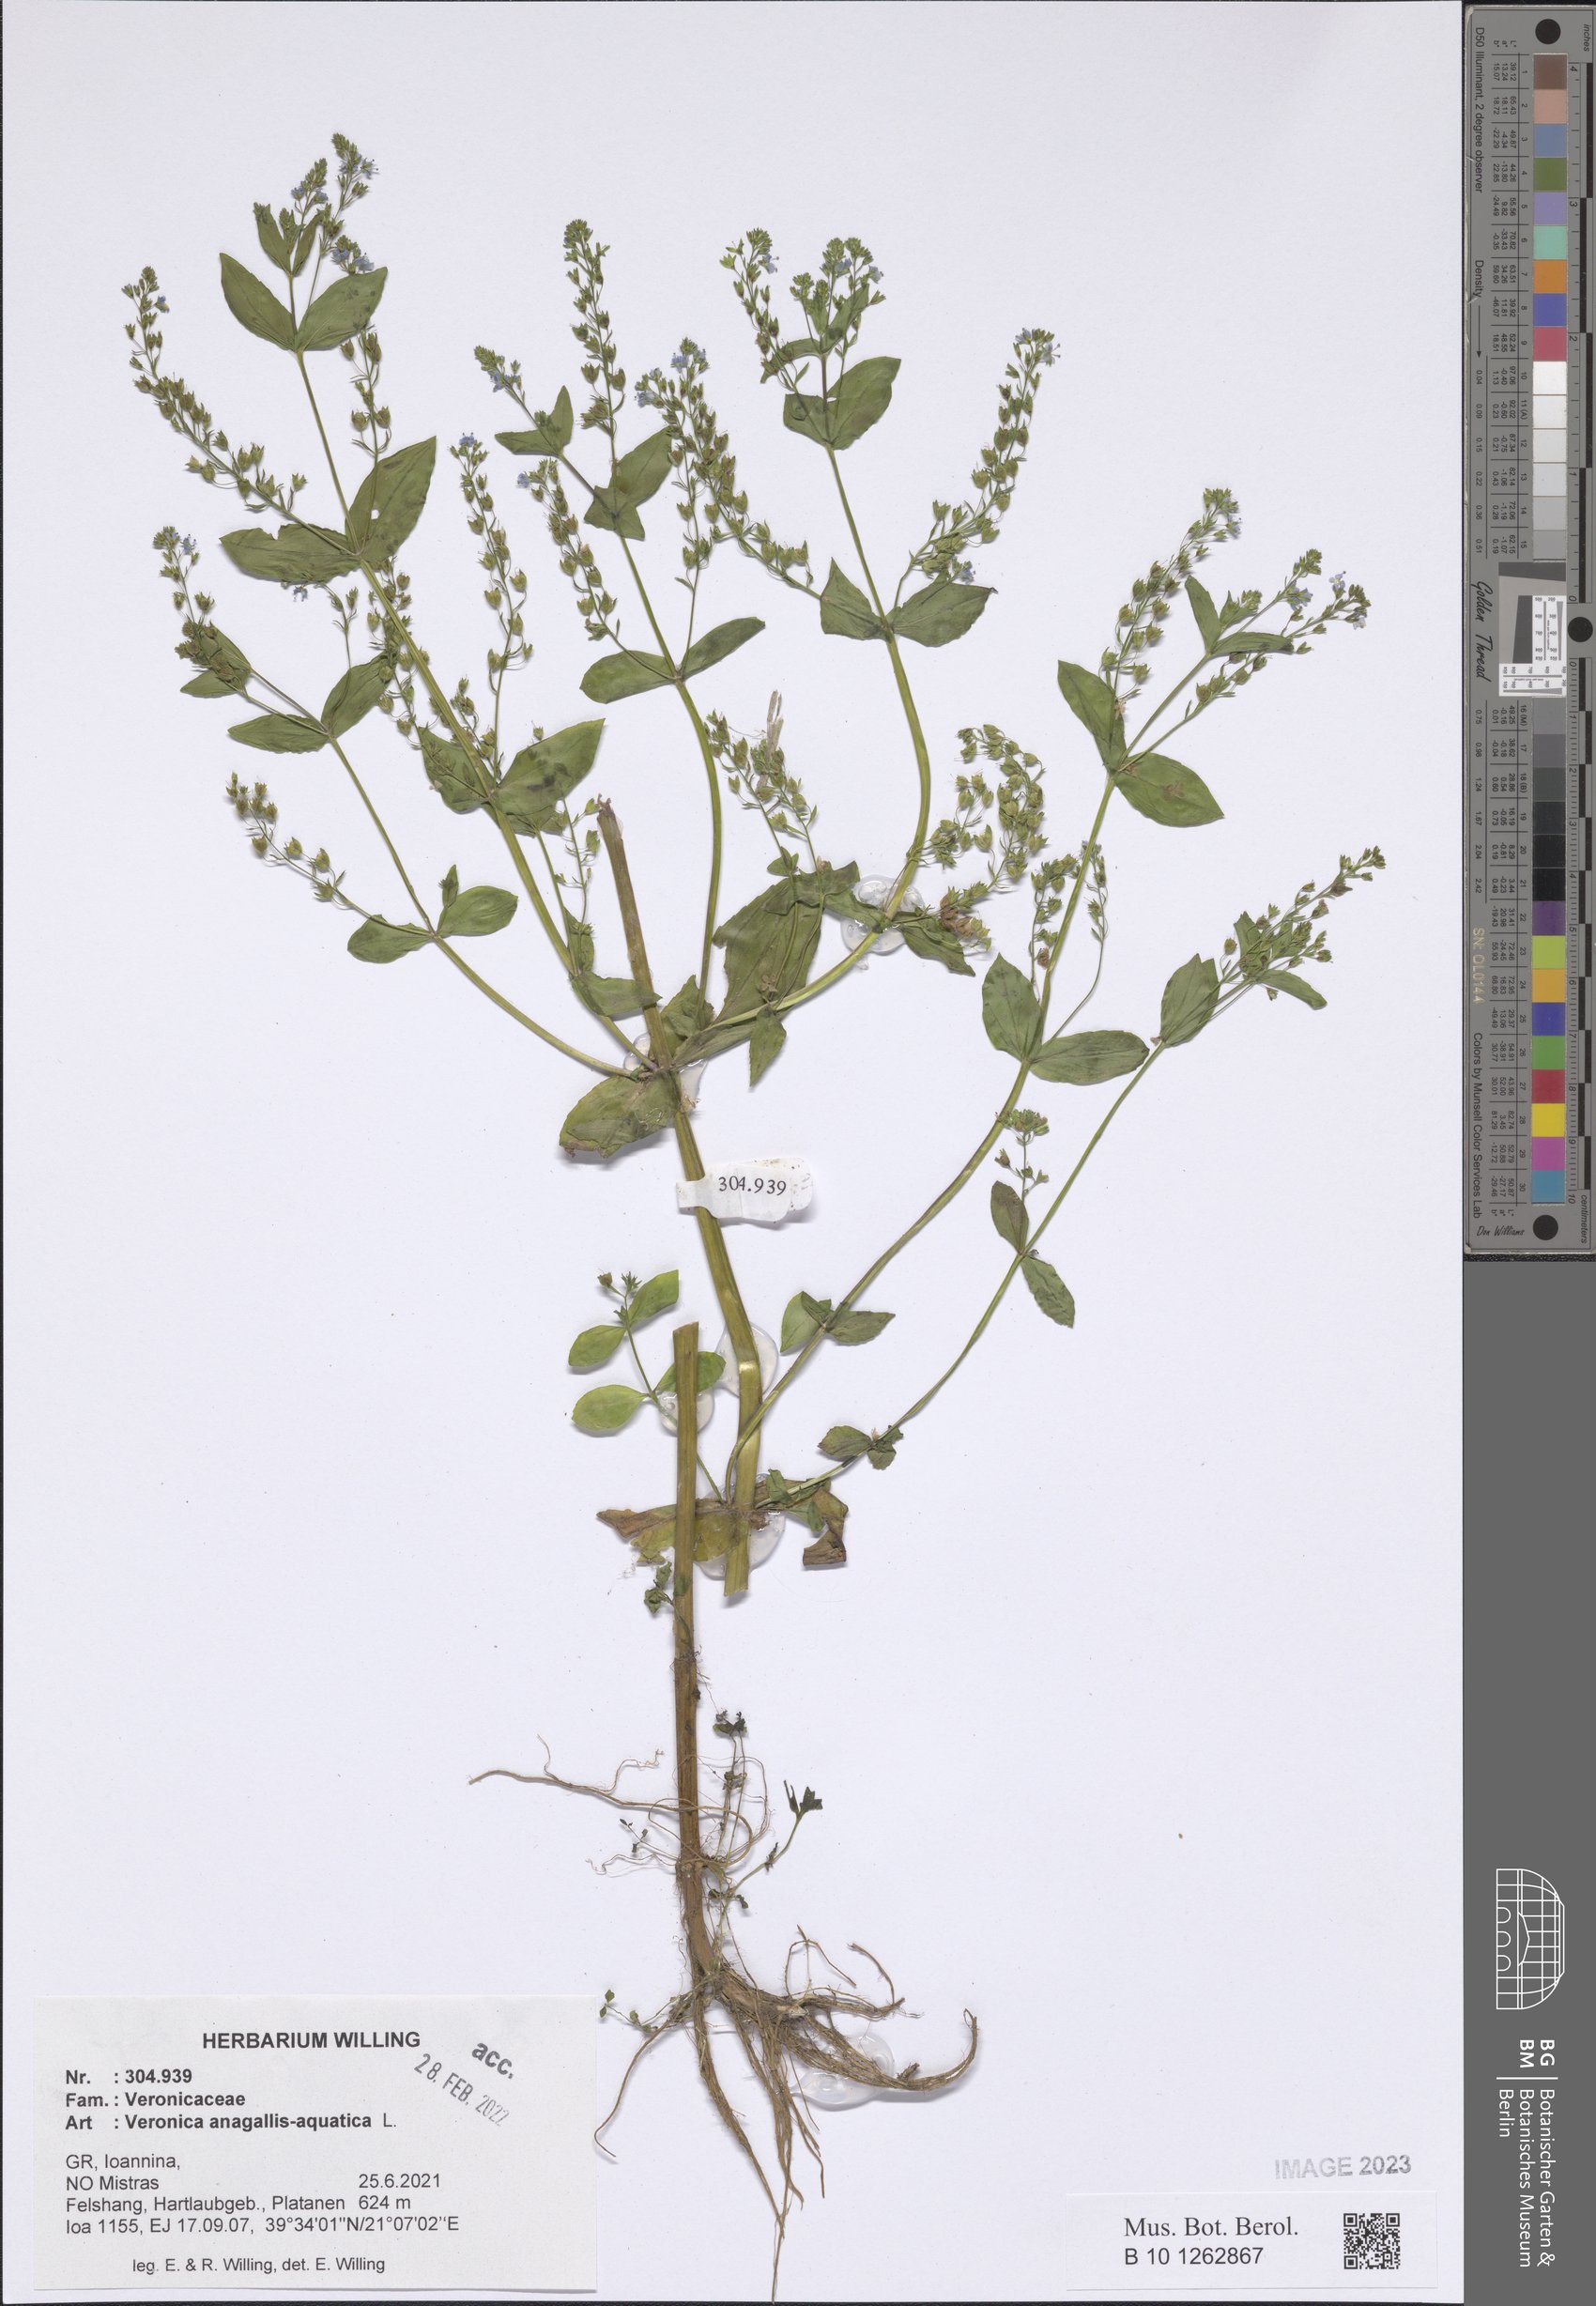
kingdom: Plantae
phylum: Tracheophyta
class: Magnoliopsida
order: Lamiales
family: Plantaginaceae
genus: Veronica
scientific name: Veronica anagallis-aquatica
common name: Water speedwell
